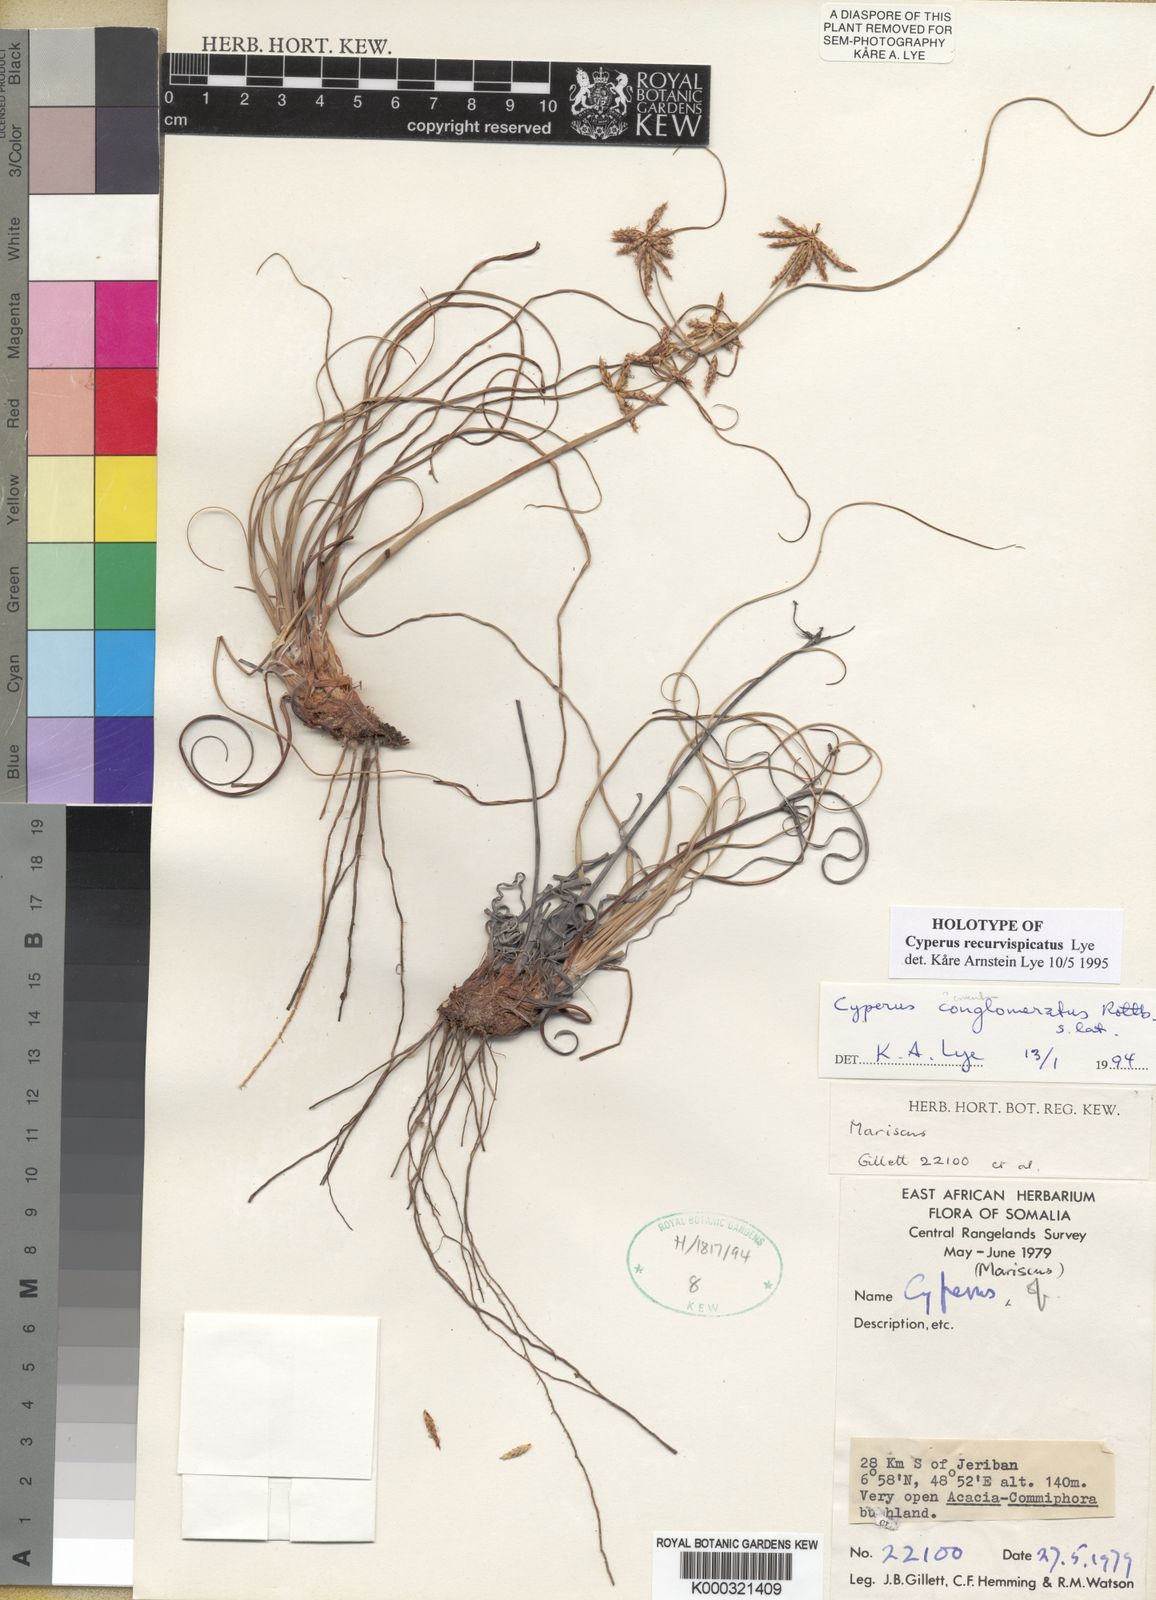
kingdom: Plantae
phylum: Tracheophyta
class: Liliopsida
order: Poales
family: Cyperaceae
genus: Cyperus
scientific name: Cyperus recurvispicatus
